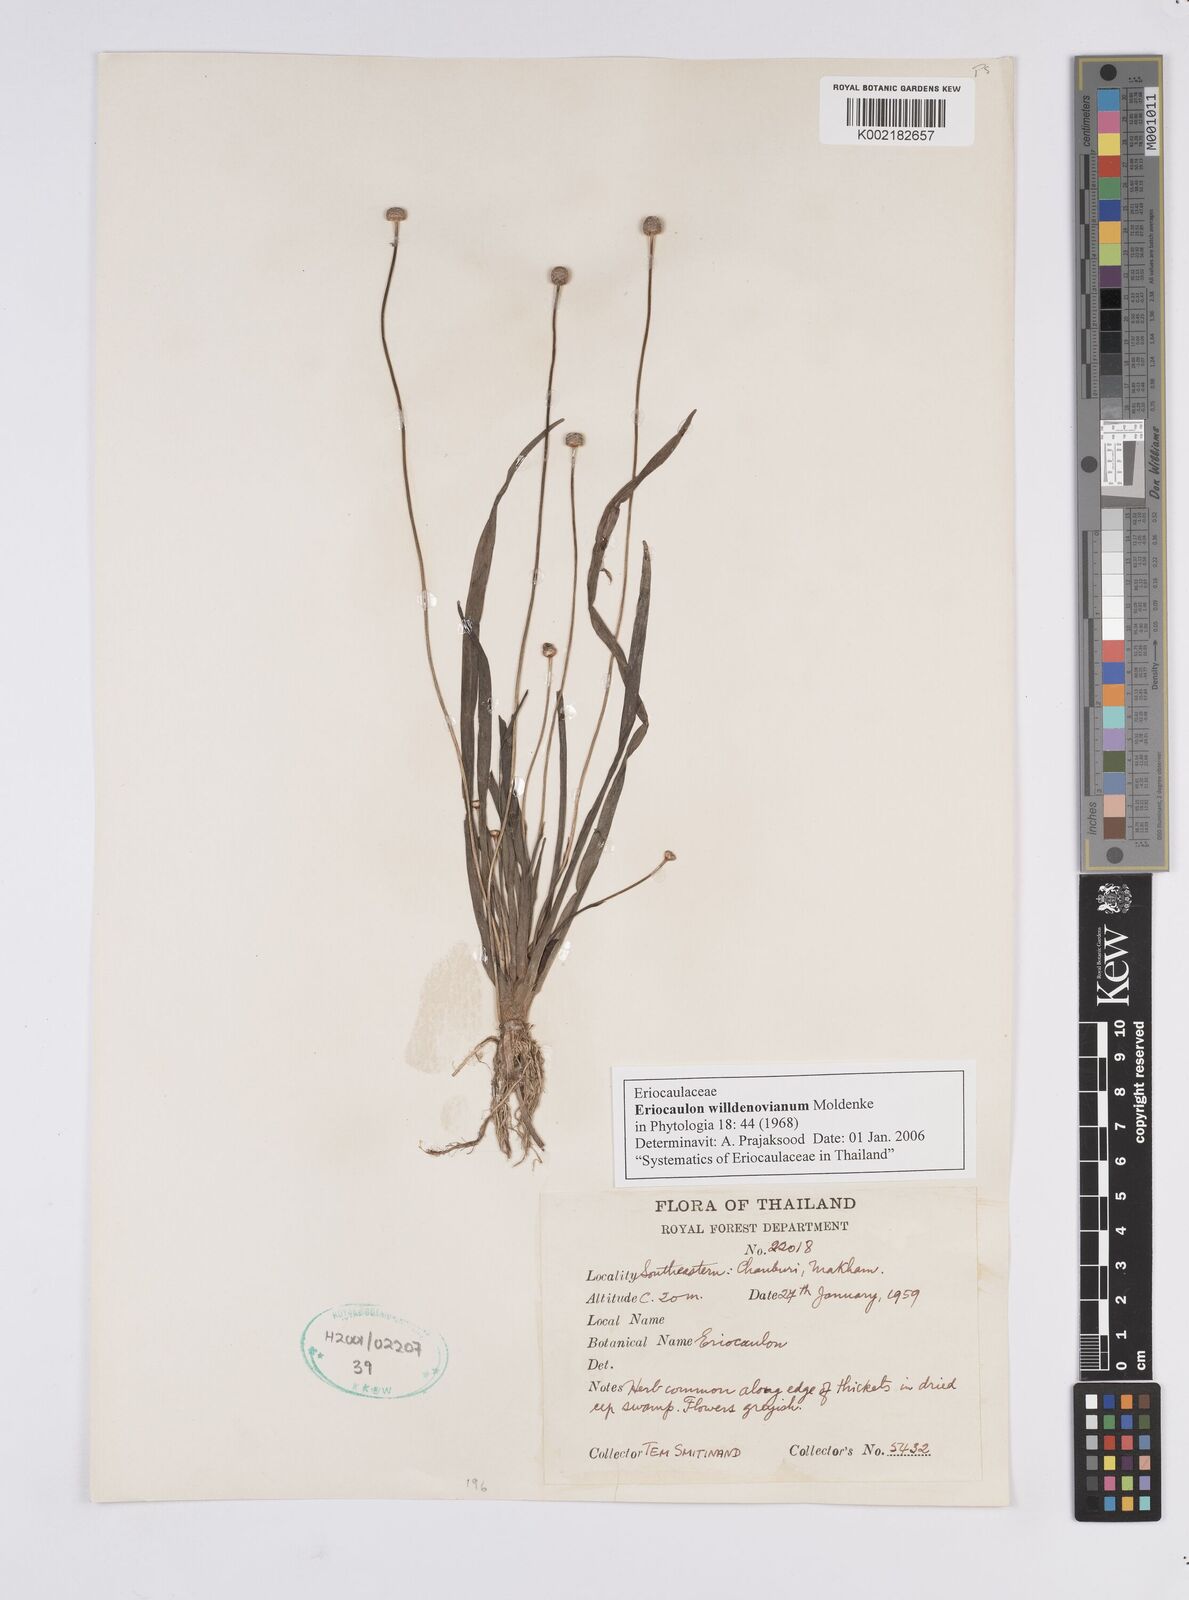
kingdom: Plantae
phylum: Tracheophyta
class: Liliopsida
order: Poales
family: Eriocaulaceae
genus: Eriocaulon
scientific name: Eriocaulon willdenovianum
